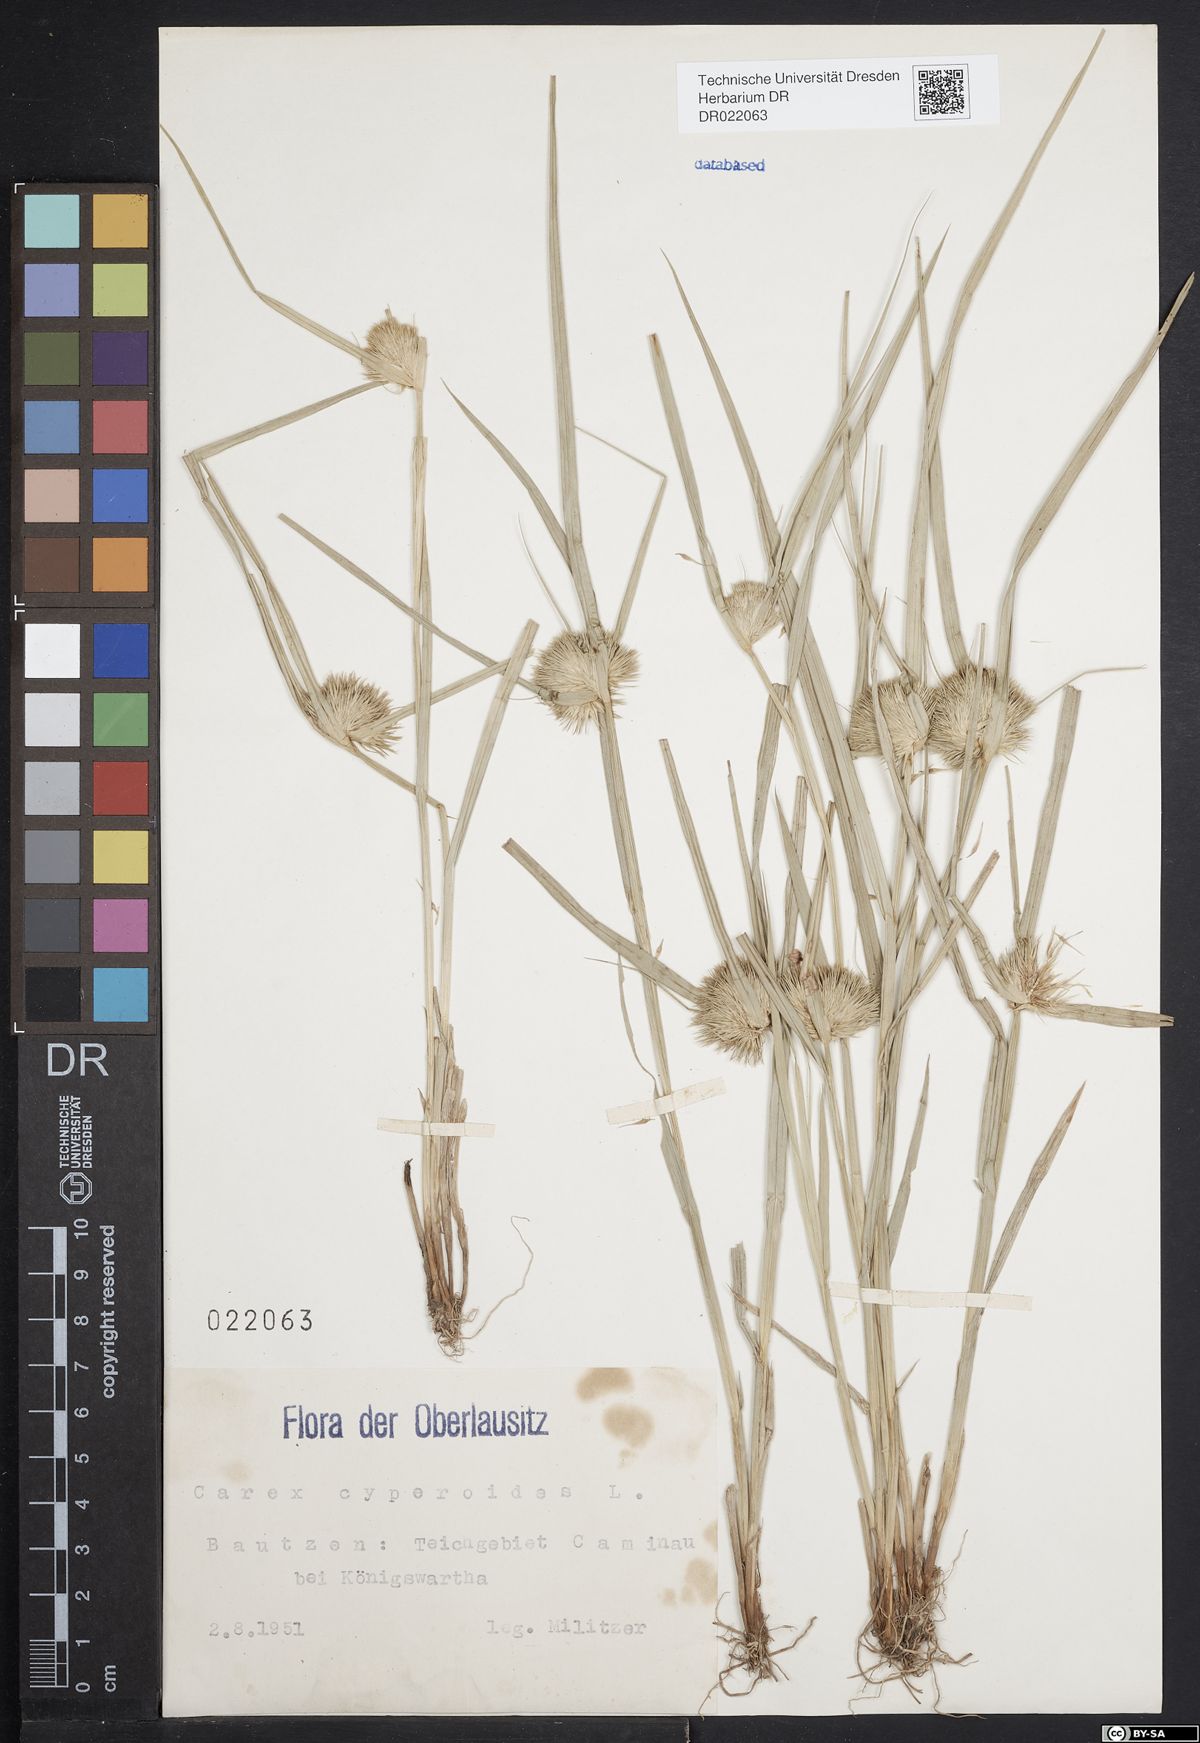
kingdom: Plantae
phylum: Tracheophyta
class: Liliopsida
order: Poales
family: Cyperaceae
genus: Carex
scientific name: Carex bohemica
